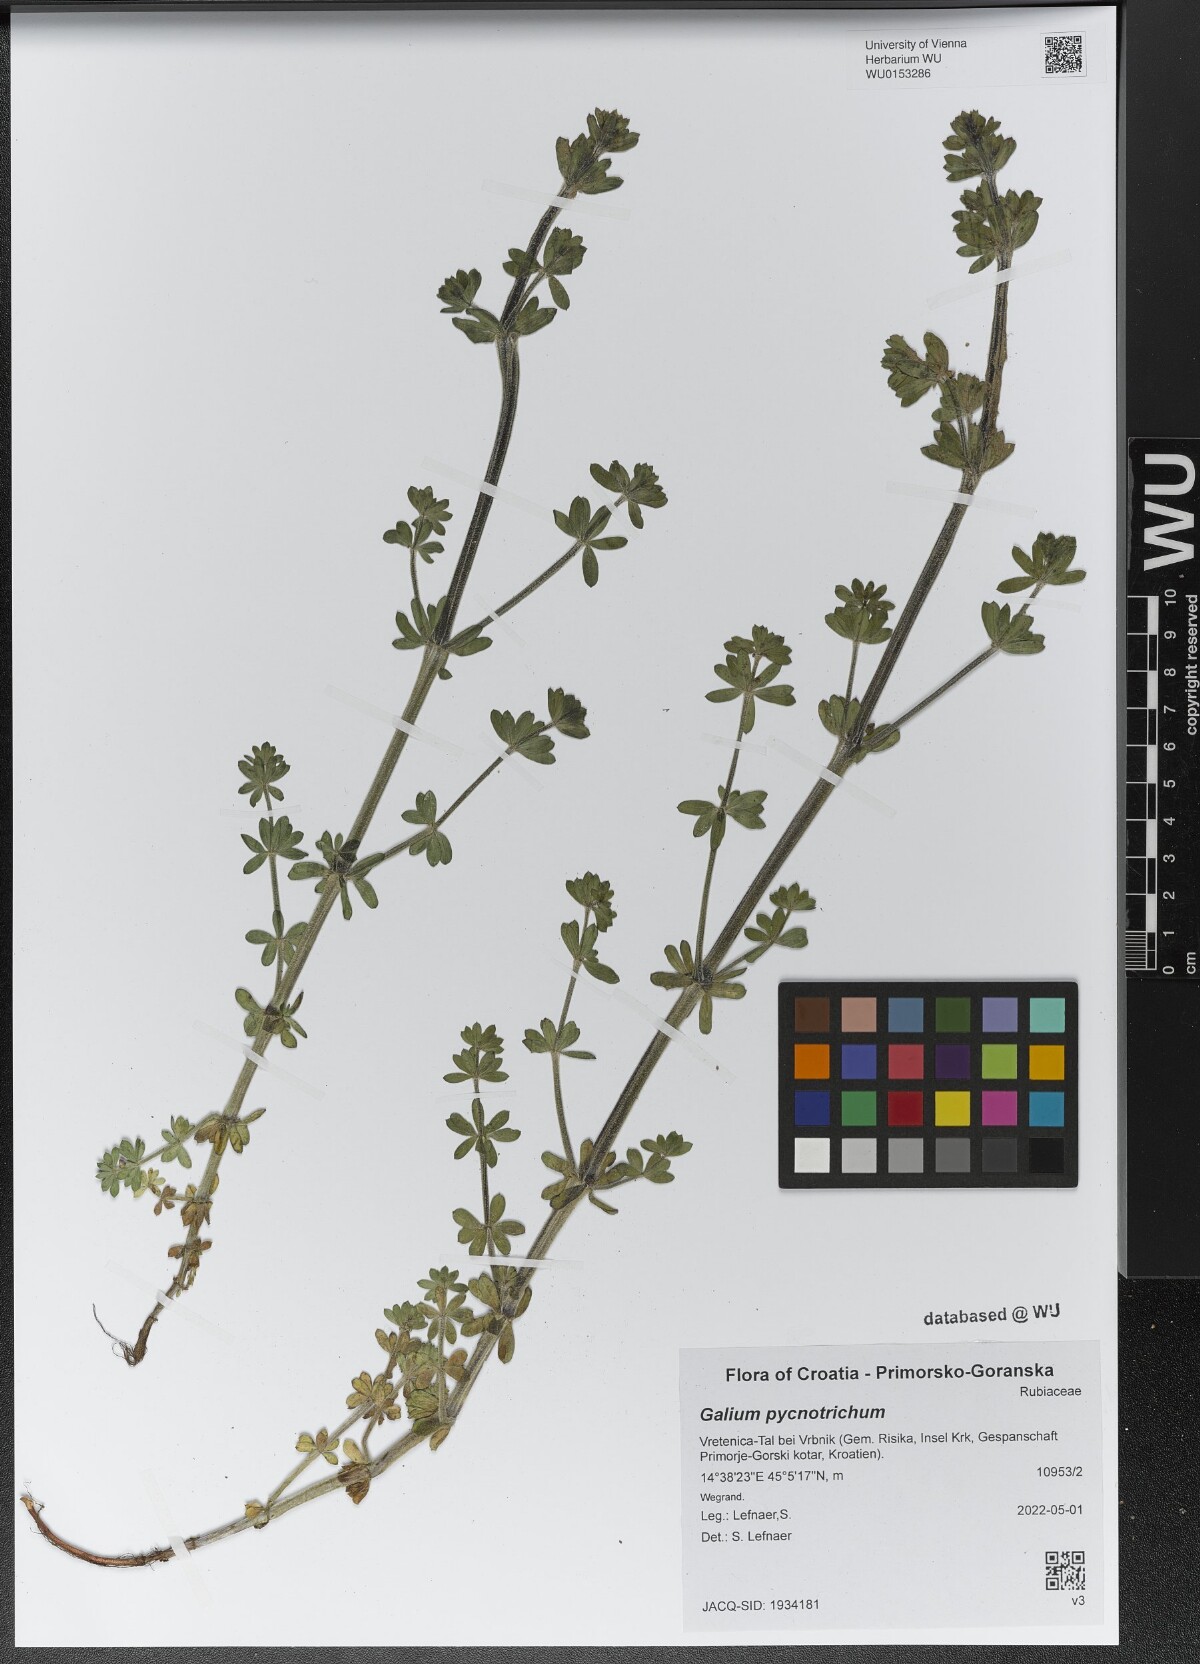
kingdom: Plantae
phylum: Tracheophyta
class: Magnoliopsida
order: Gentianales
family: Rubiaceae
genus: Galium
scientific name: Galium album
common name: White bedstraw
